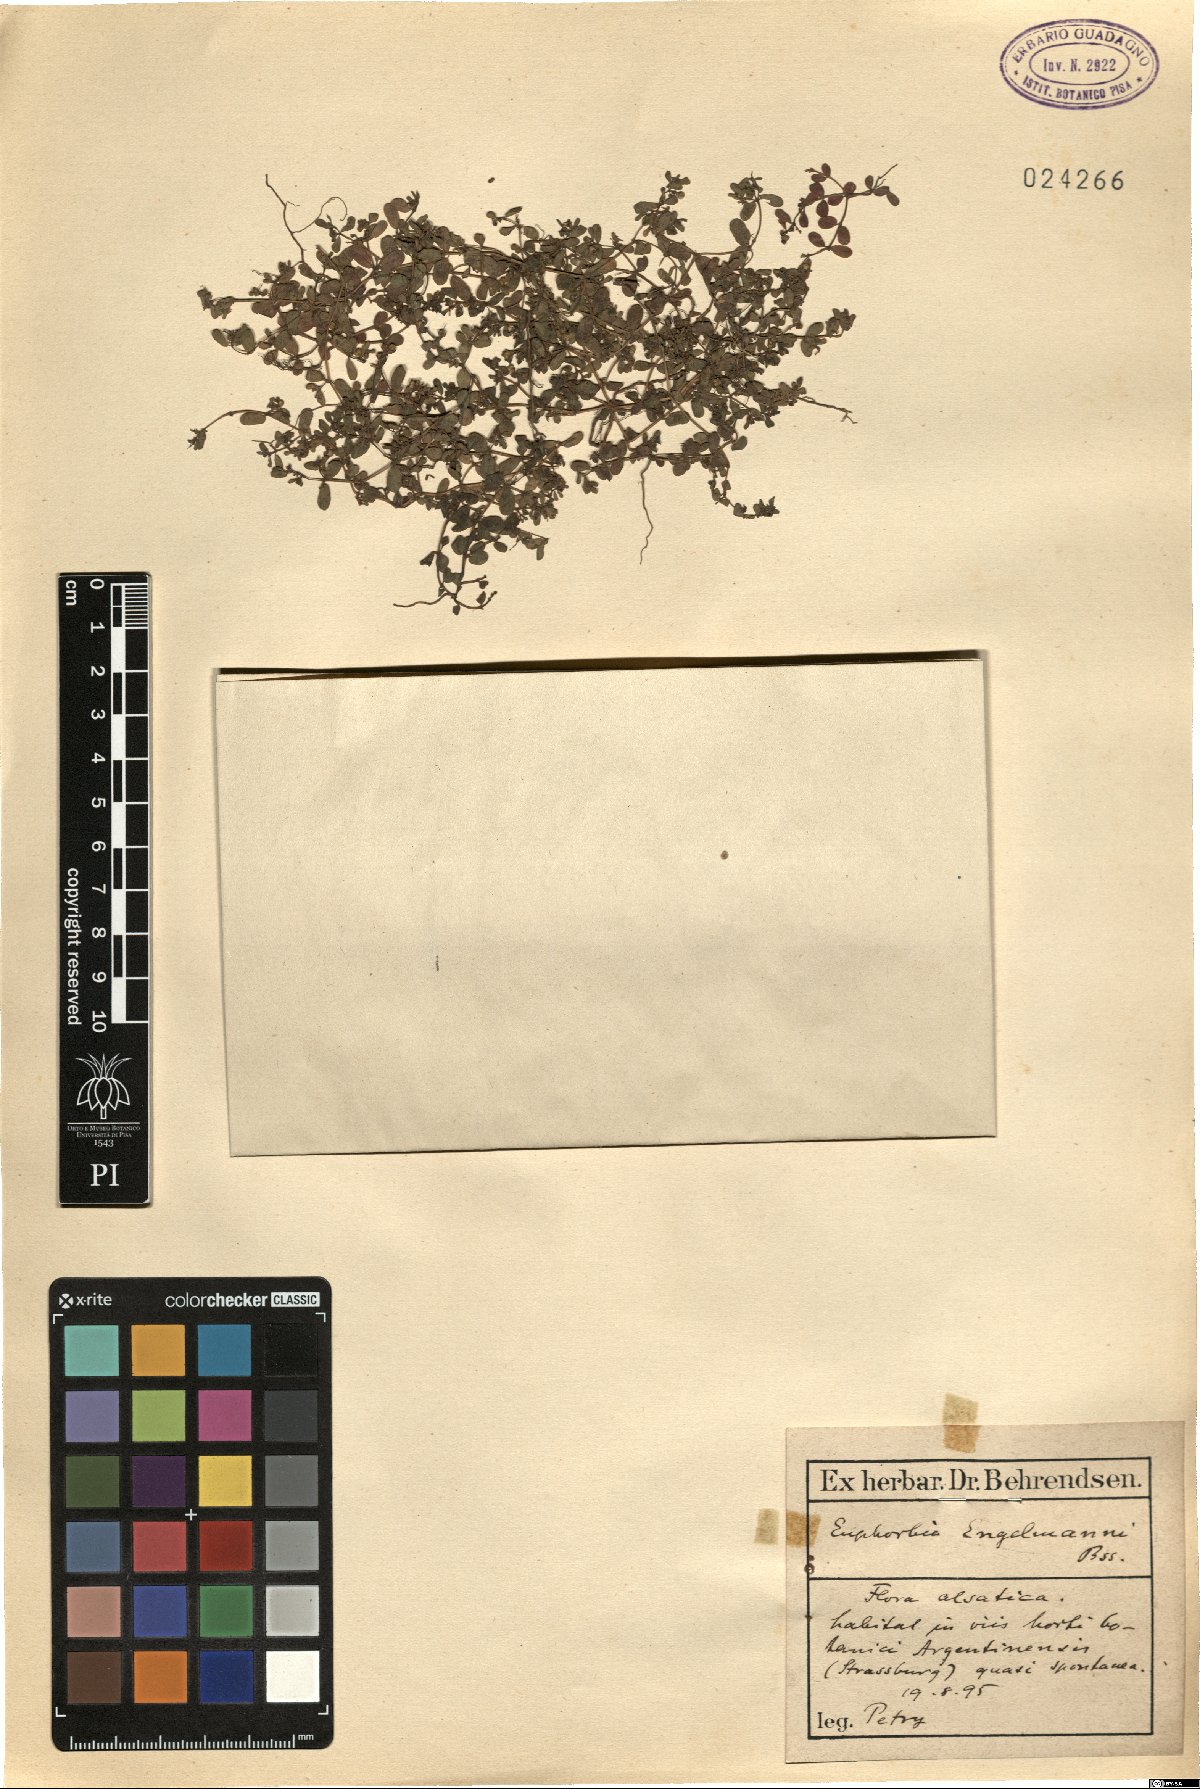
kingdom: Plantae
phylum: Tracheophyta
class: Magnoliopsida
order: Malpighiales
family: Euphorbiaceae
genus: Euphorbia
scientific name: Euphorbia engelmannii
